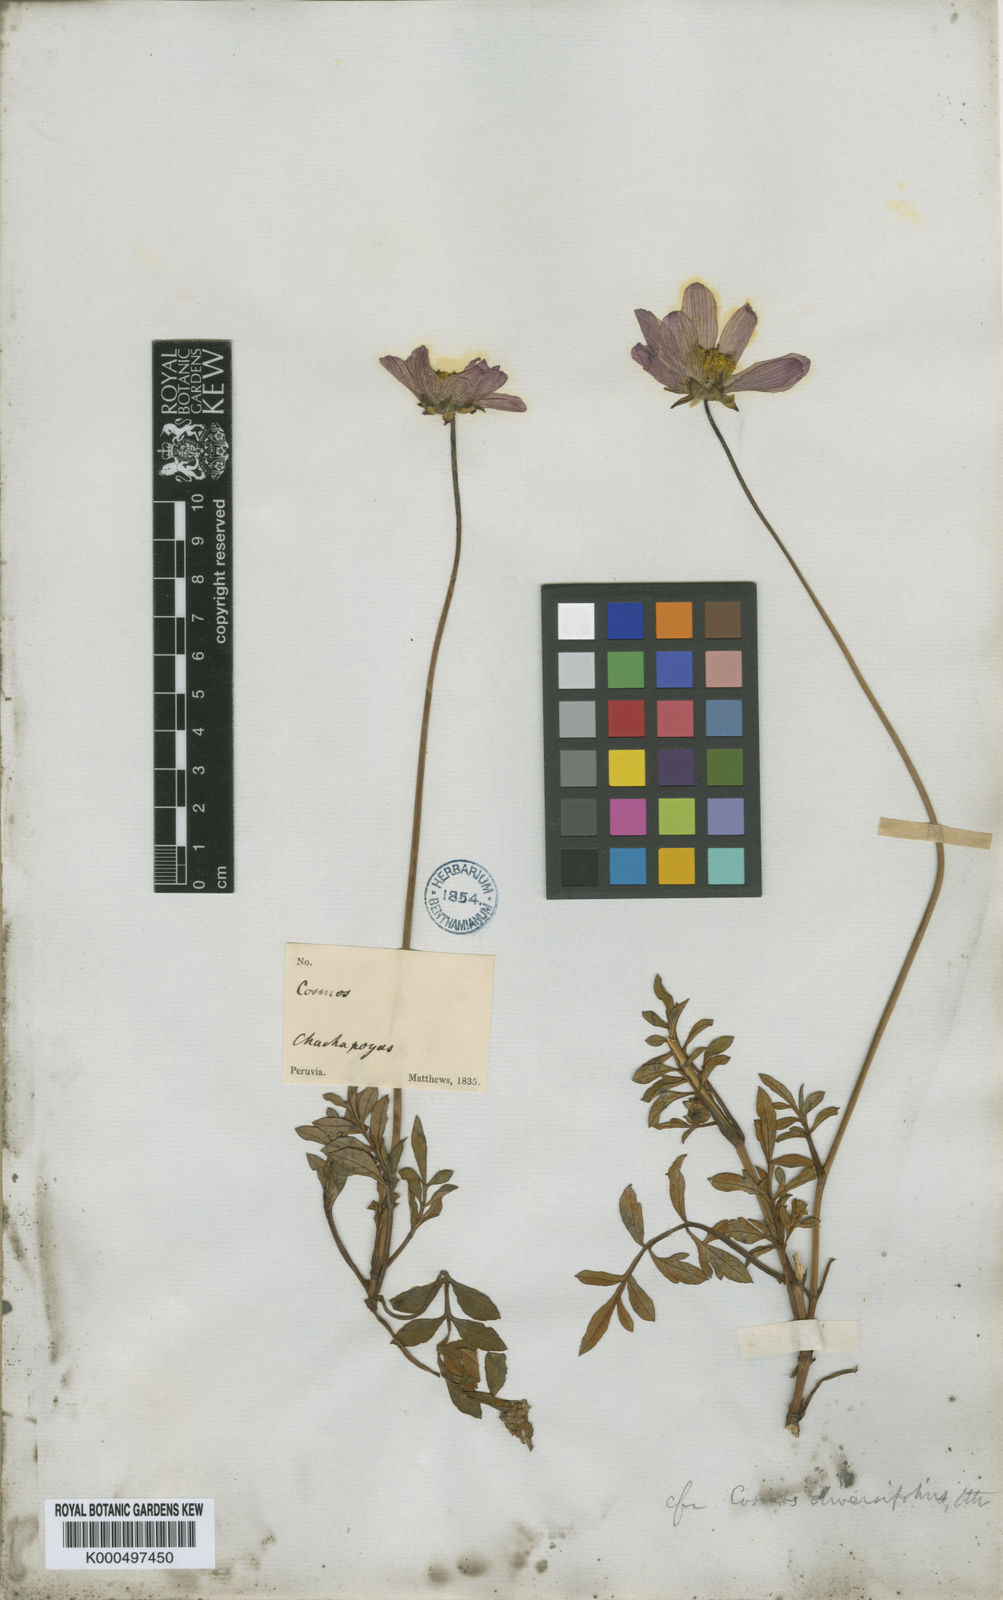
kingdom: Plantae
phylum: Tracheophyta
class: Magnoliopsida
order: Asterales
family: Asteraceae
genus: Cosmos
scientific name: Cosmos peucedanifolius
